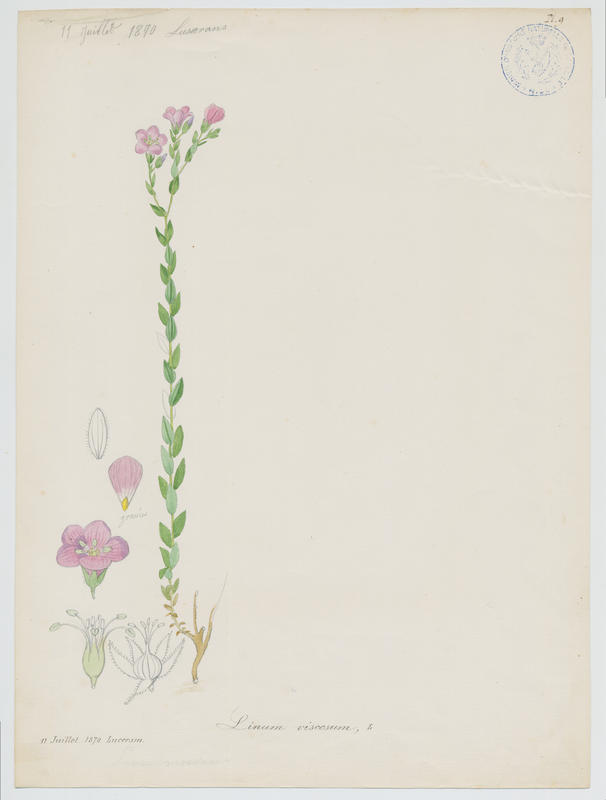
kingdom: Plantae
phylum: Tracheophyta
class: Magnoliopsida
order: Malpighiales
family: Linaceae
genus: Linum
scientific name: Linum viscosum
